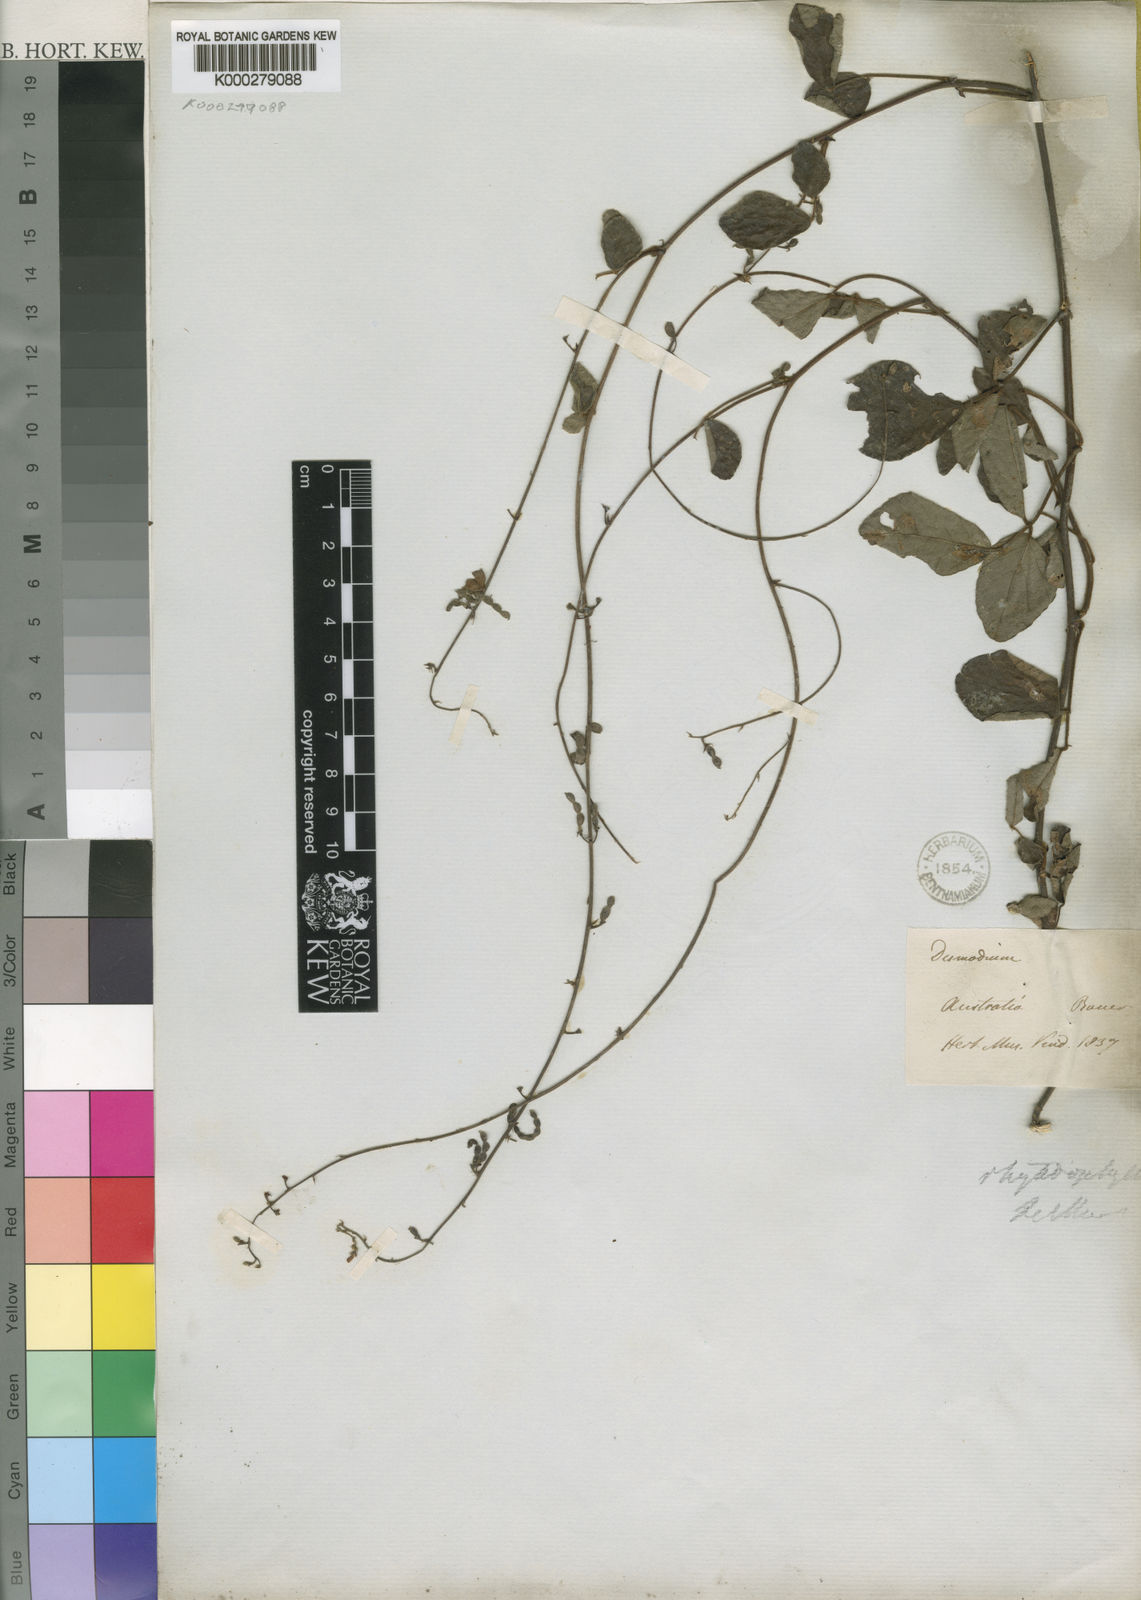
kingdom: Plantae
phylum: Tracheophyta
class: Magnoliopsida
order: Fabales
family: Fabaceae
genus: Desmodium
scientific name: Desmodium
